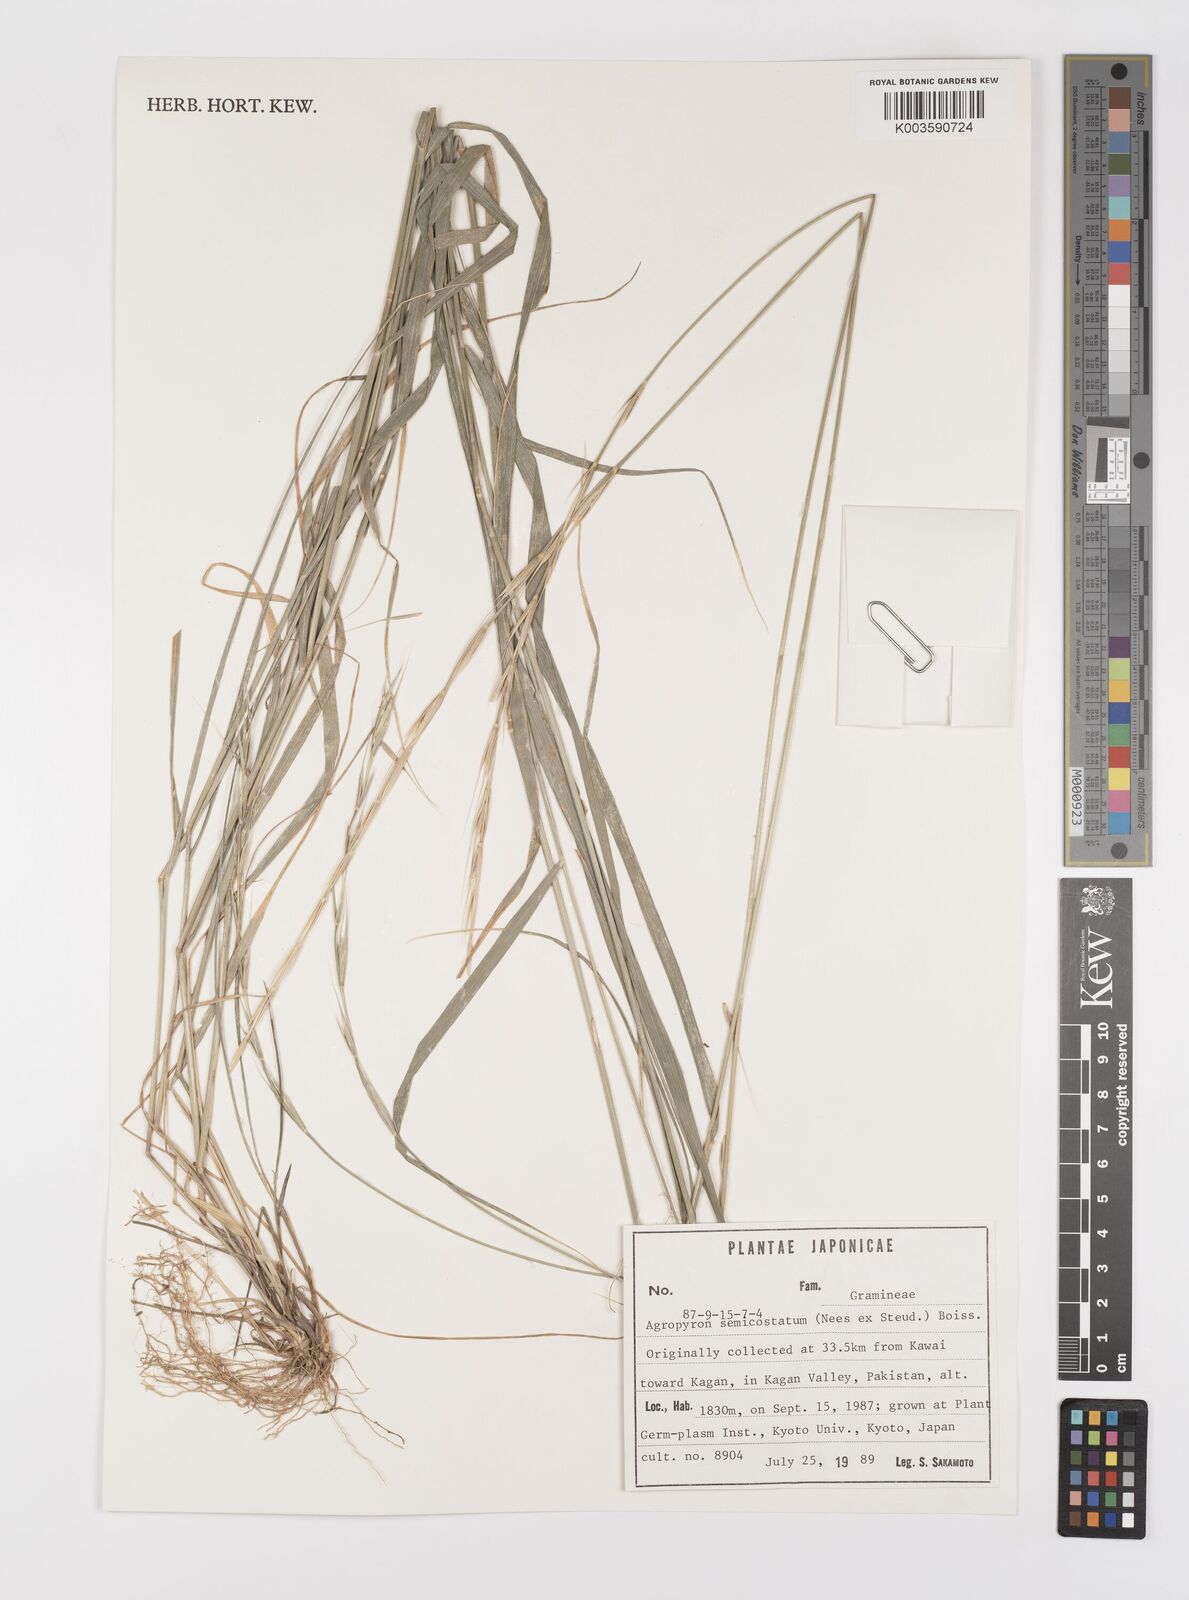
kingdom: Plantae
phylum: Tracheophyta
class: Liliopsida
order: Poales
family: Poaceae
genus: Elymus
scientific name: Elymus semicostatus
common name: Drooping wildrye
